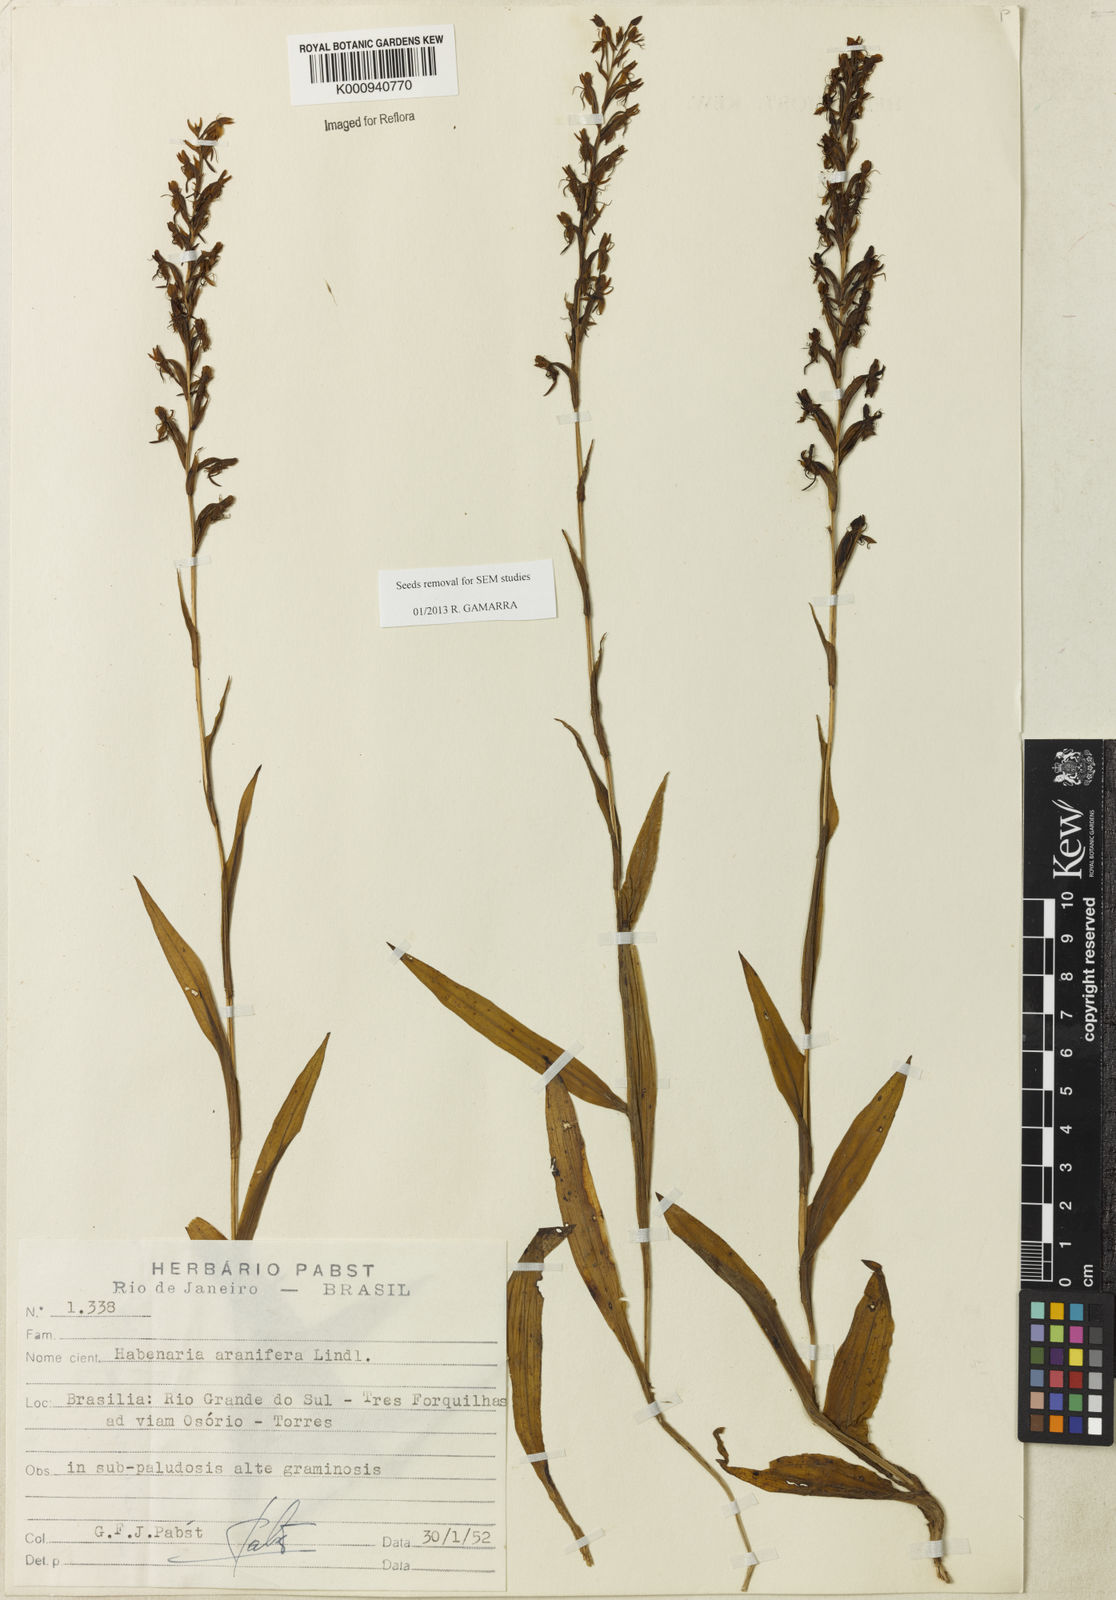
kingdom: Plantae
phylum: Tracheophyta
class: Liliopsida
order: Asparagales
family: Orchidaceae
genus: Habenaria
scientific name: Habenaria aranifera
